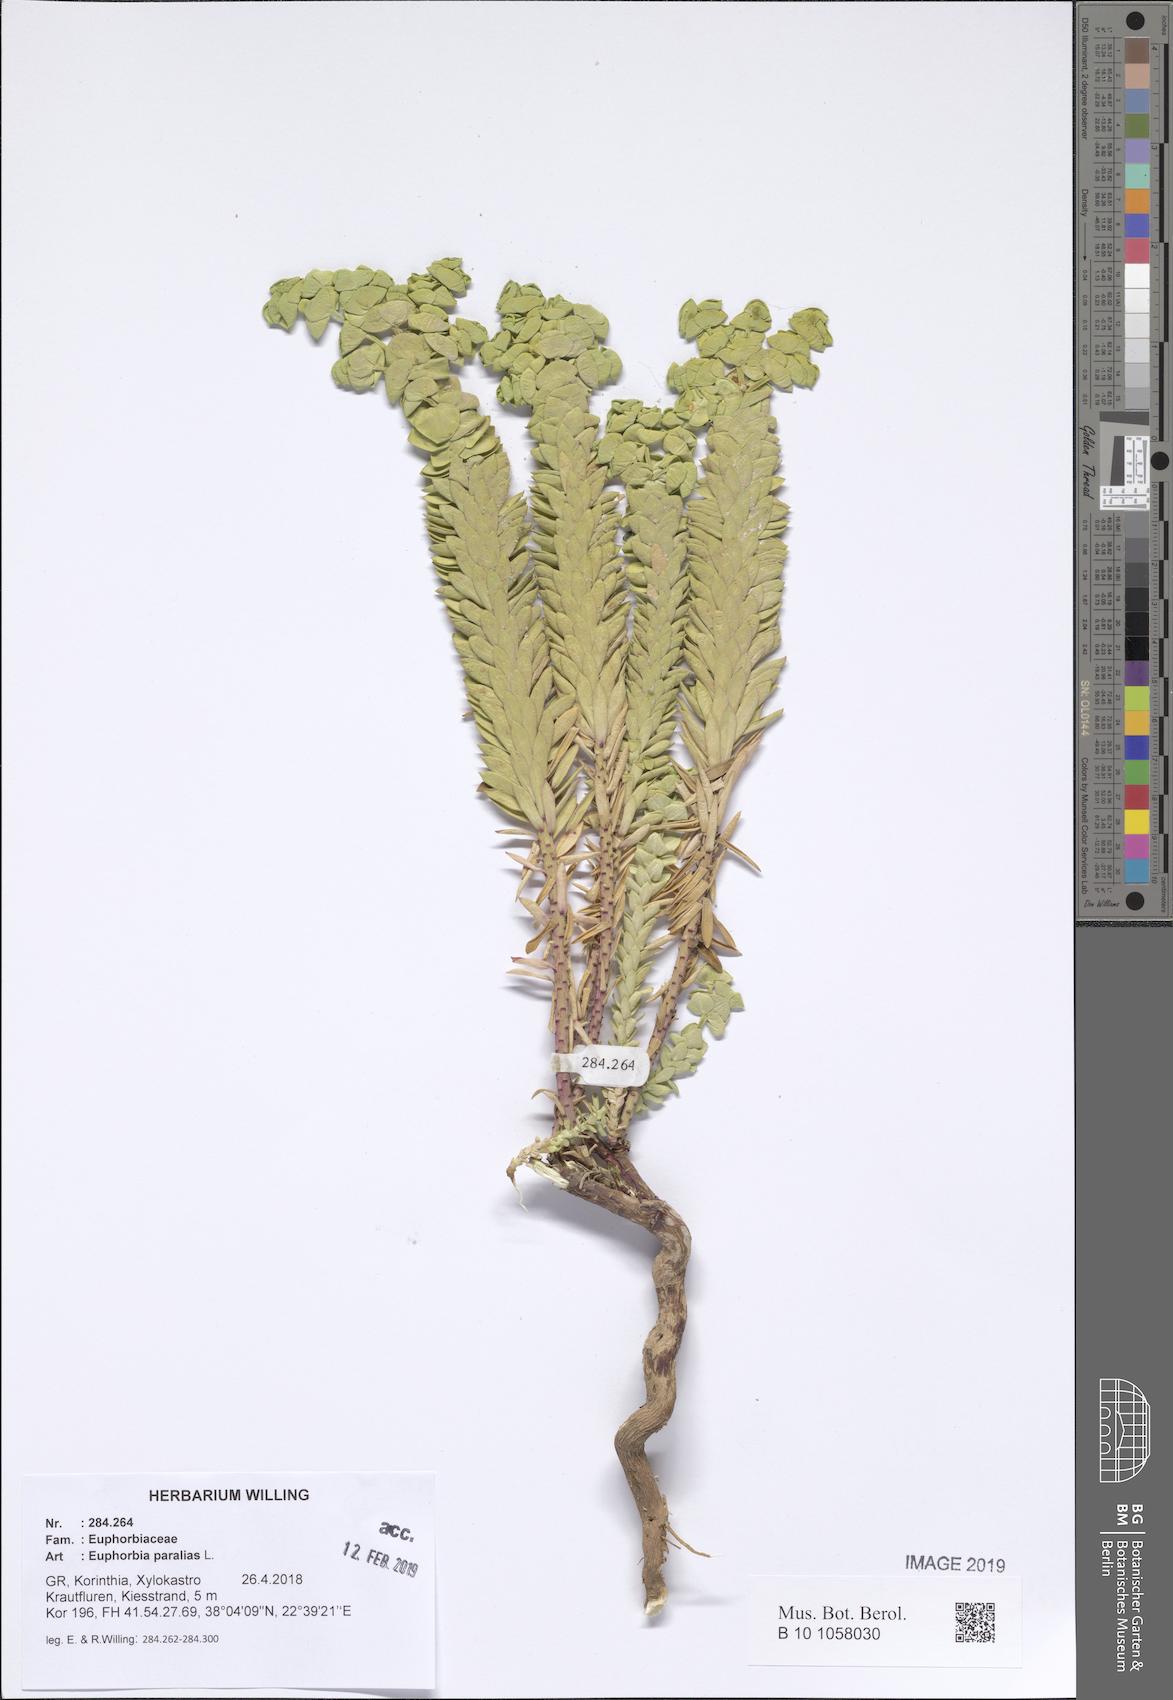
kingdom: Plantae
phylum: Tracheophyta
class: Magnoliopsida
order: Malpighiales
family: Euphorbiaceae
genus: Euphorbia
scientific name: Euphorbia paralias
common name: Sea spurge
